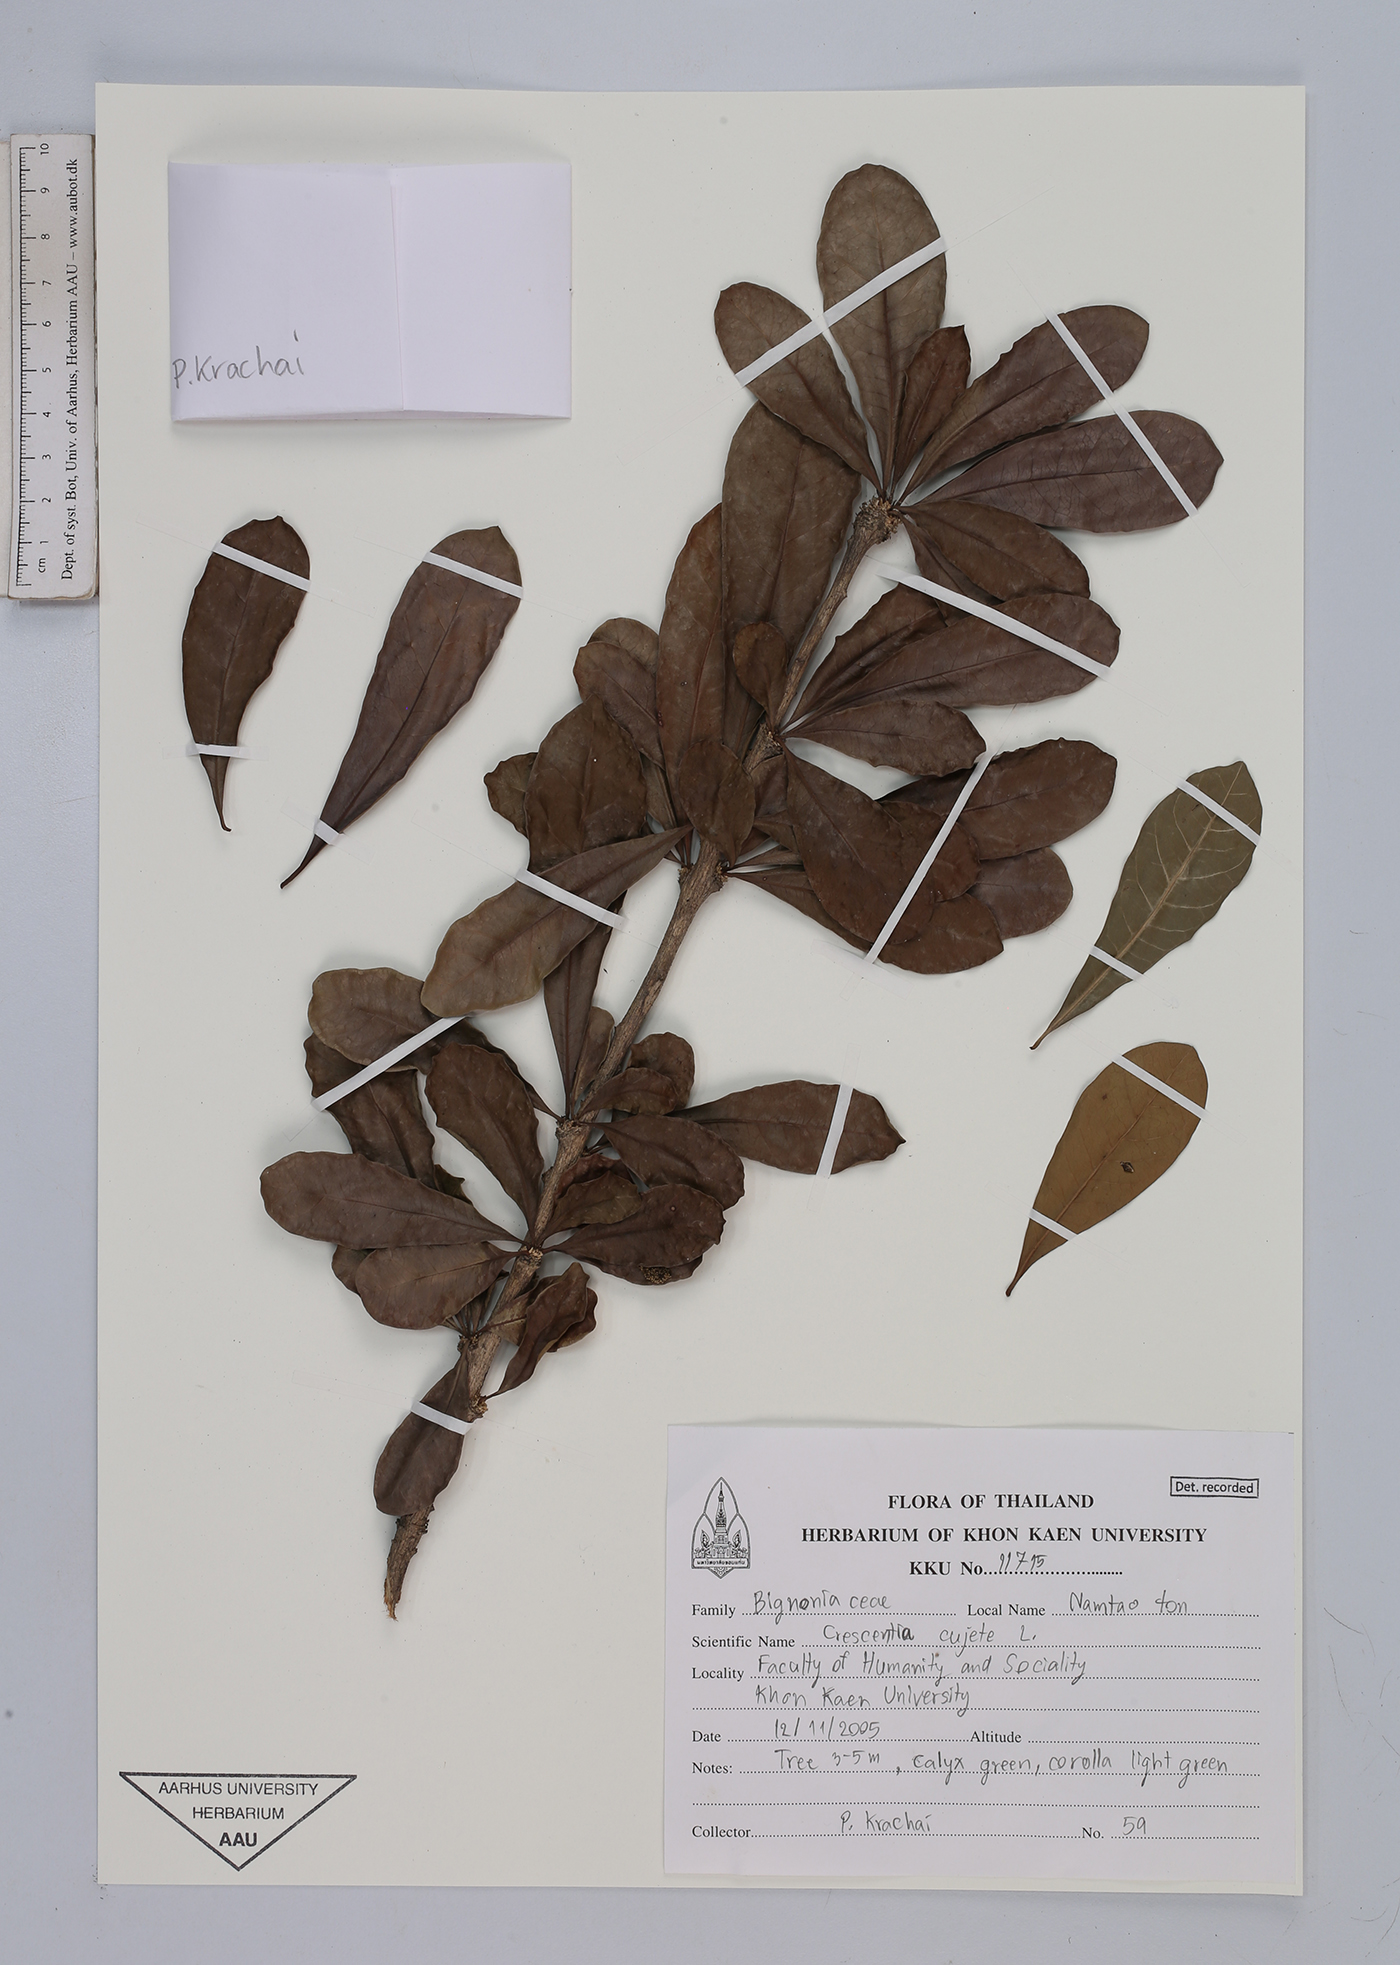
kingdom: Plantae
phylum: Tracheophyta
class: Magnoliopsida
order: Lamiales
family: Bignoniaceae
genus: Crescentia
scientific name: Crescentia cujete
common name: Calabash
